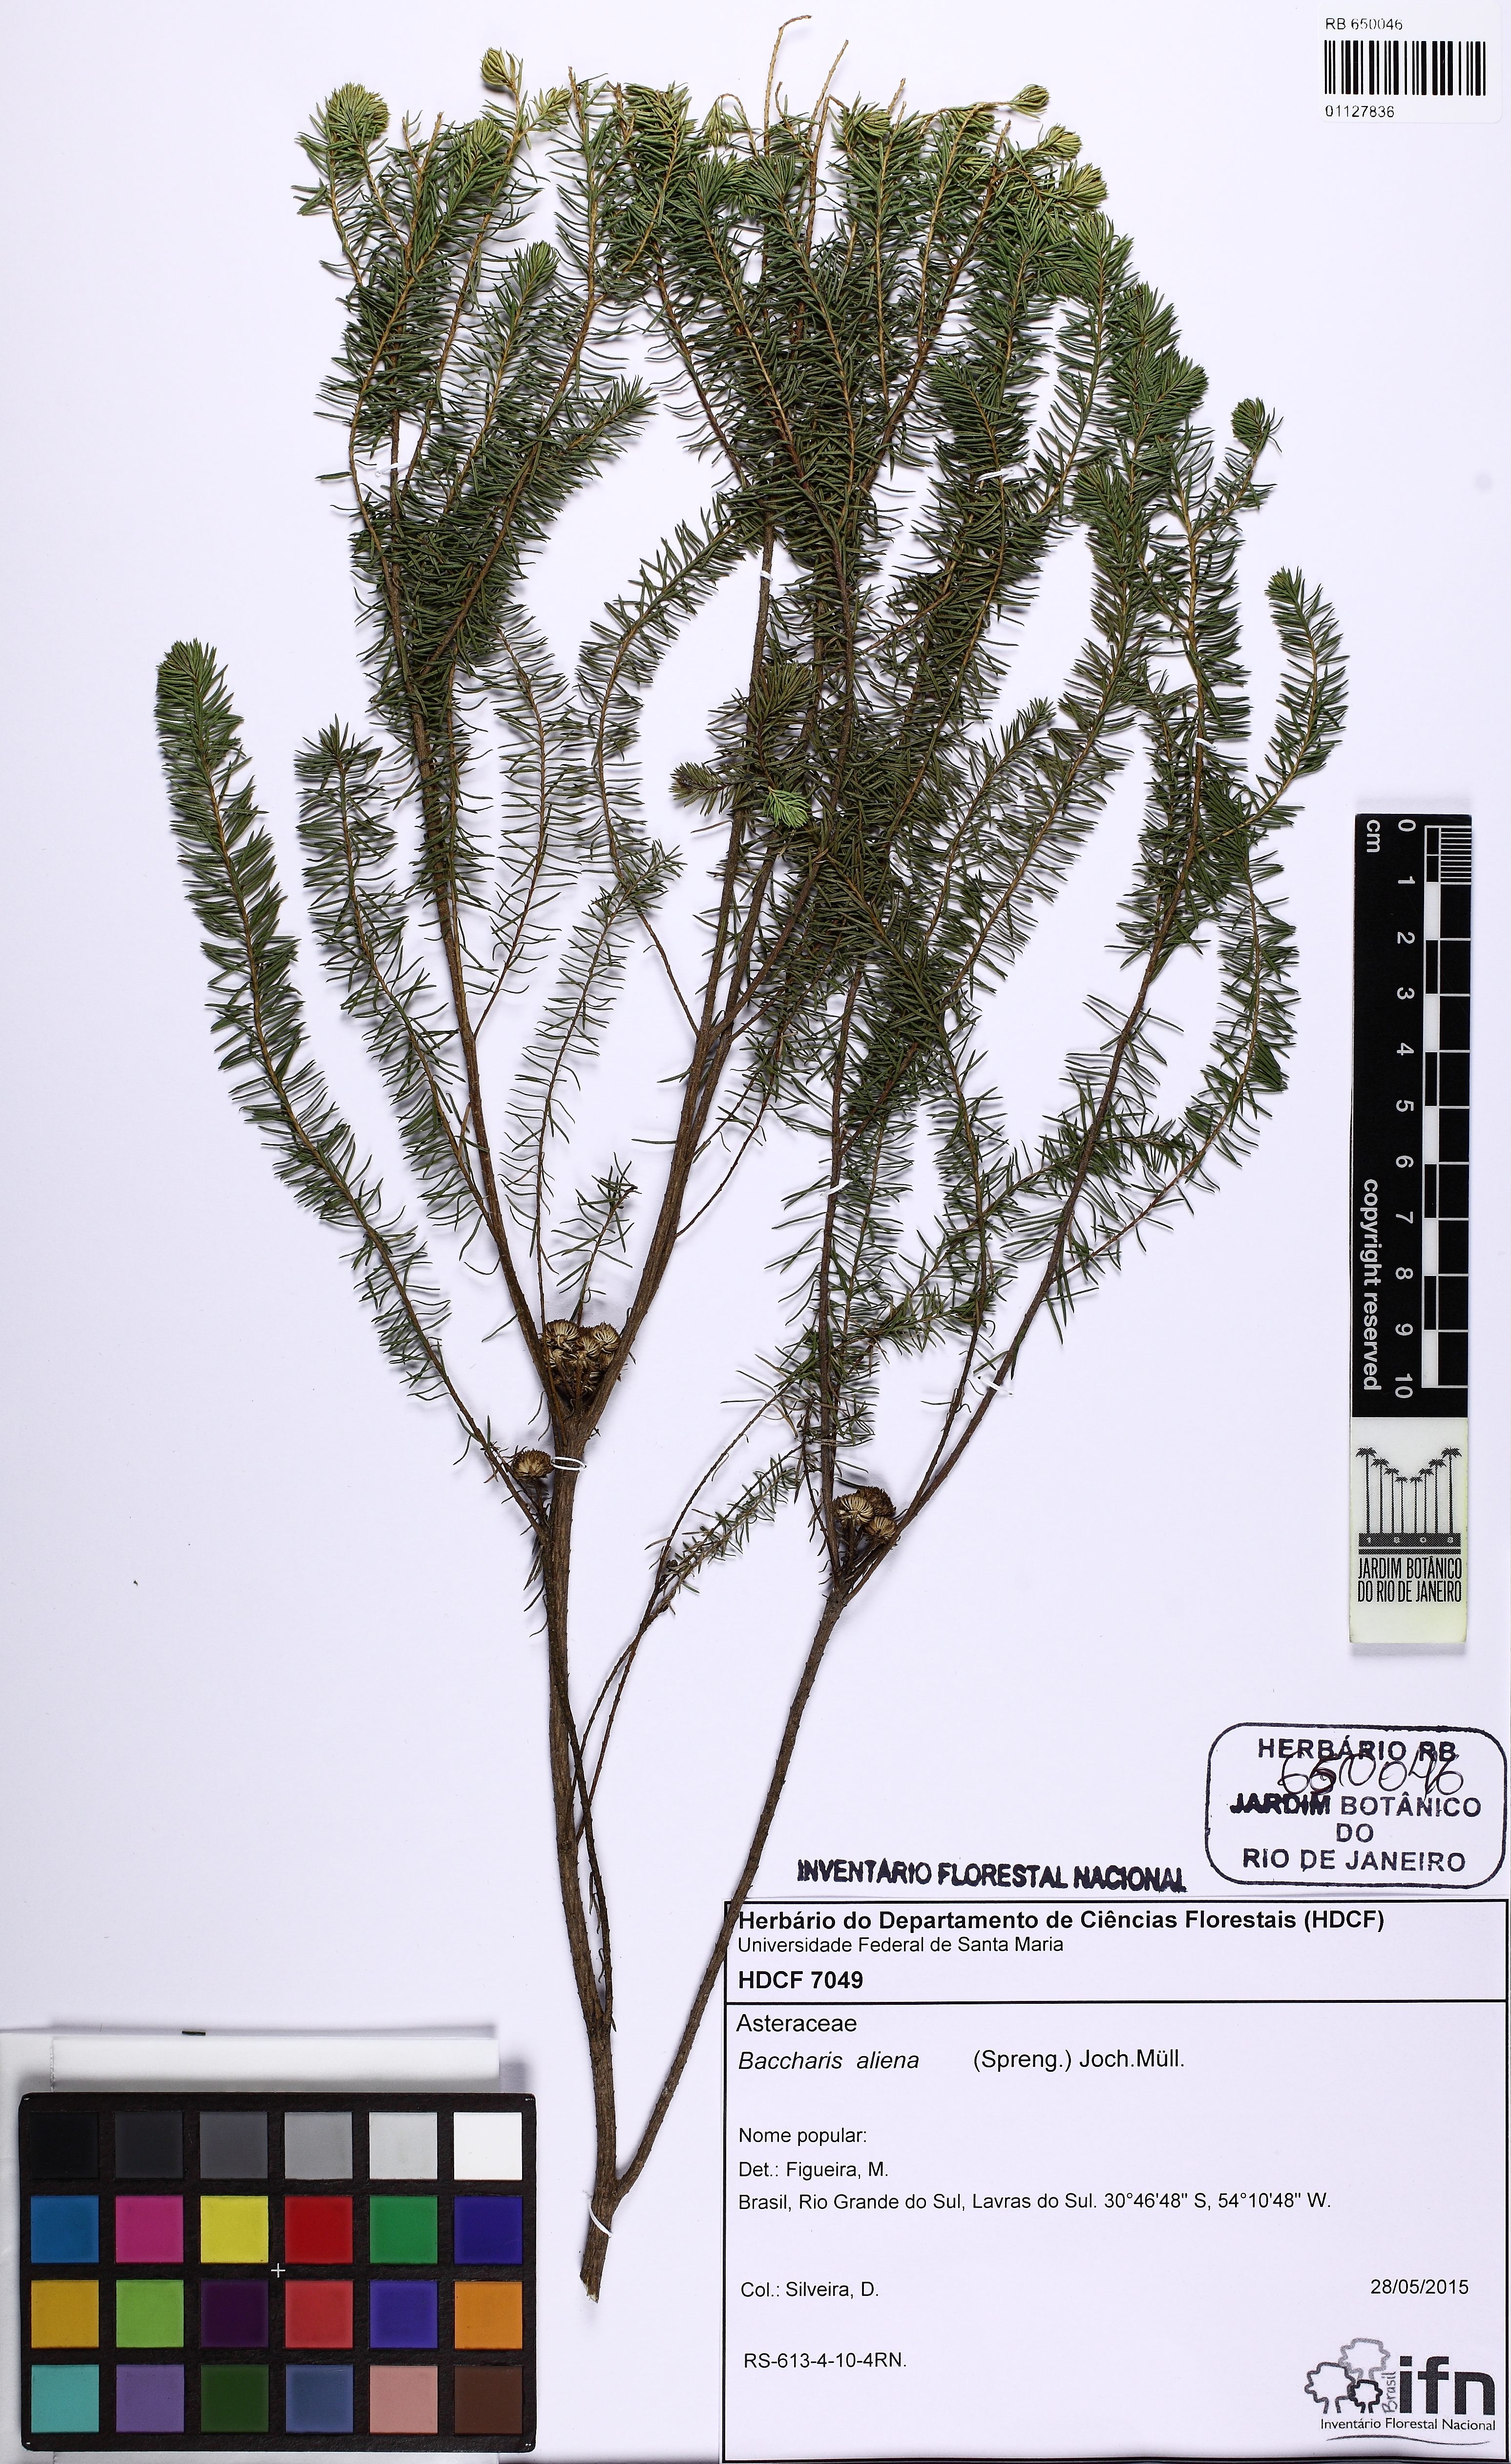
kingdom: Plantae
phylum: Tracheophyta
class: Magnoliopsida
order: Asterales
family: Asteraceae
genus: Baccharis
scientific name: Baccharis aliena
